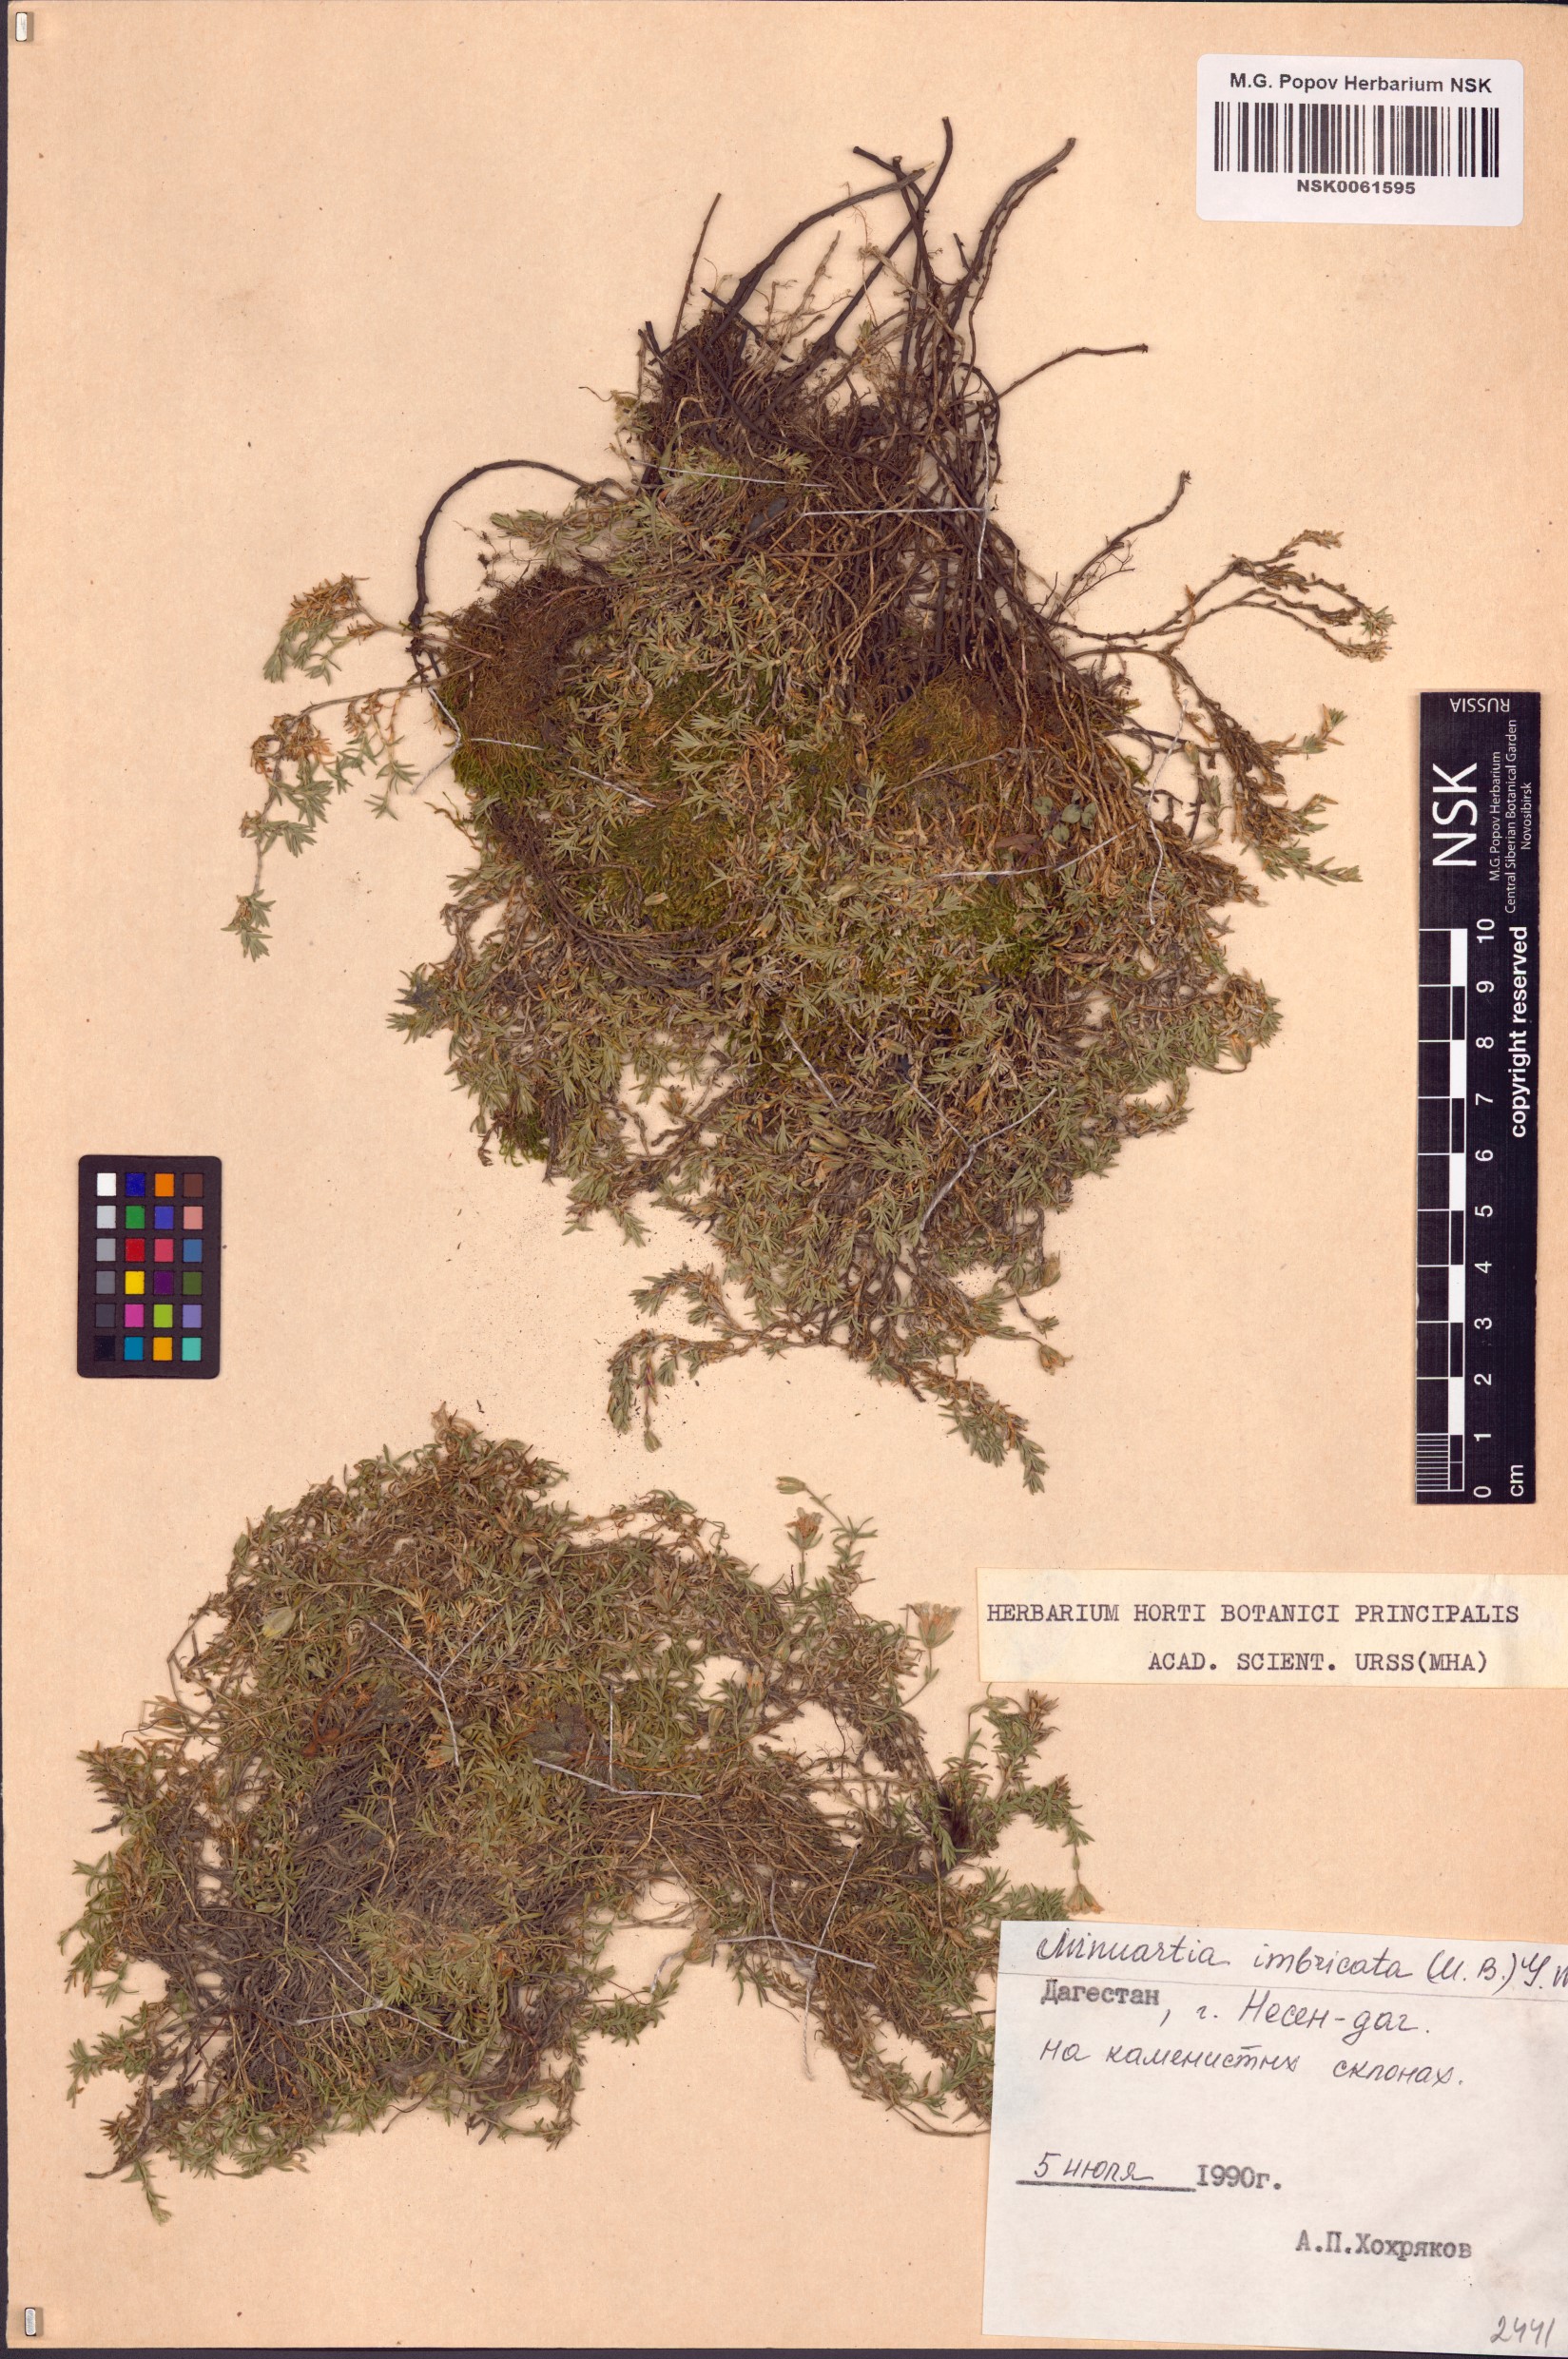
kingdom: Plantae
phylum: Tracheophyta
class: Magnoliopsida
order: Caryophyllales
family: Caryophyllaceae
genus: Pseudocherleria
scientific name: Pseudocherleria imbricata
